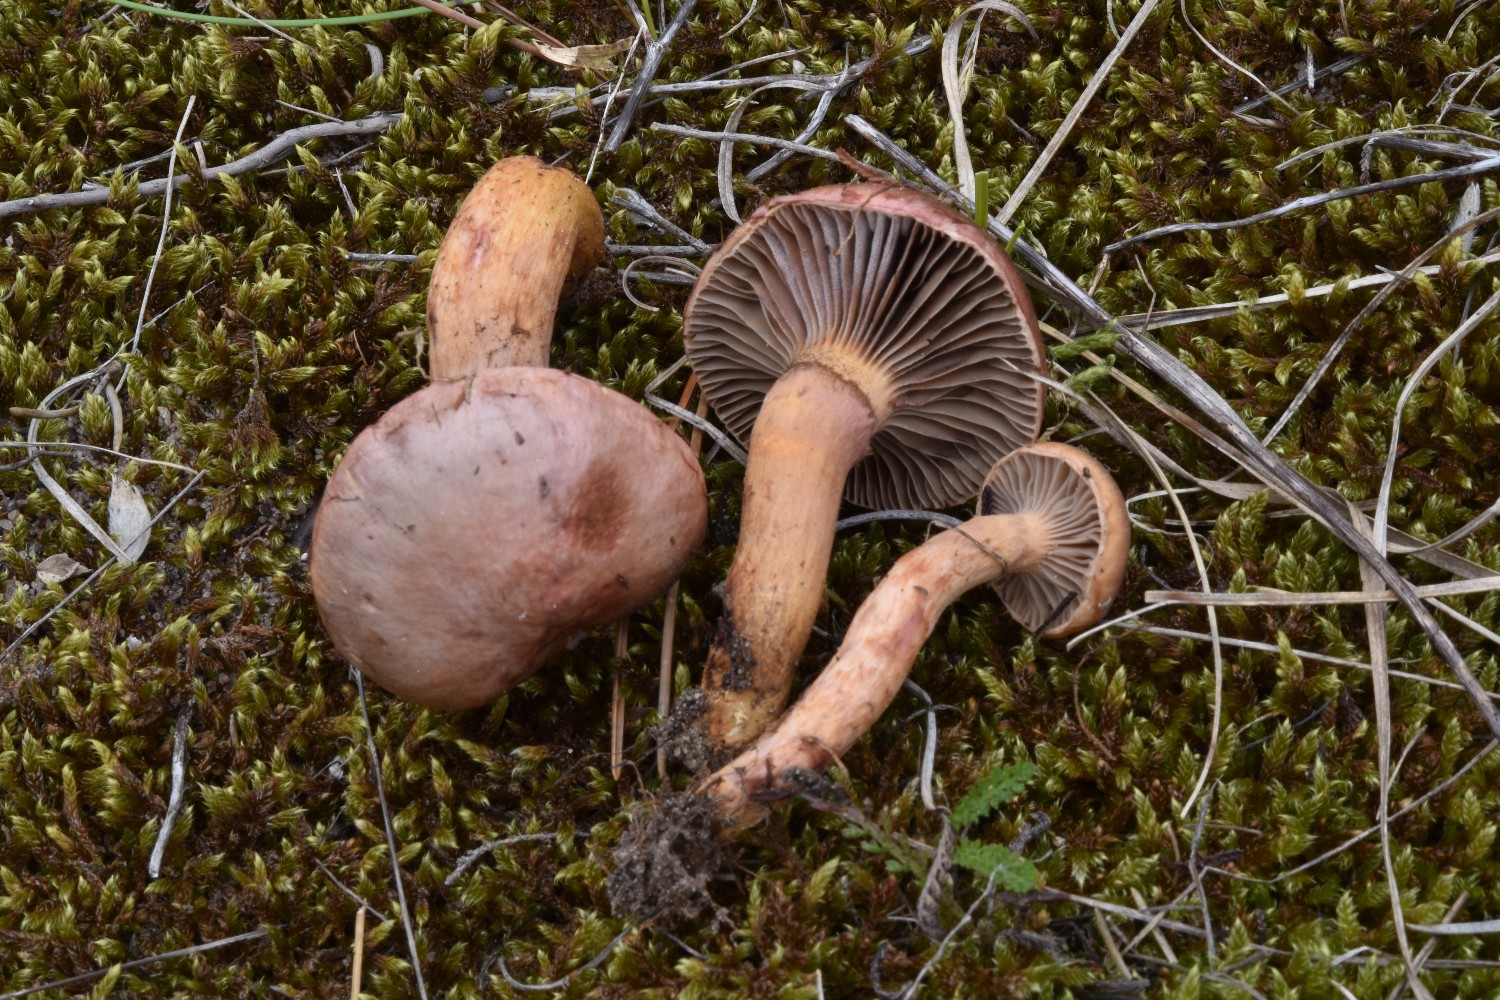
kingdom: Fungi
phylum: Basidiomycota
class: Agaricomycetes
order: Boletales
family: Gomphidiaceae
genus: Chroogomphus
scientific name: Chroogomphus rutilus
